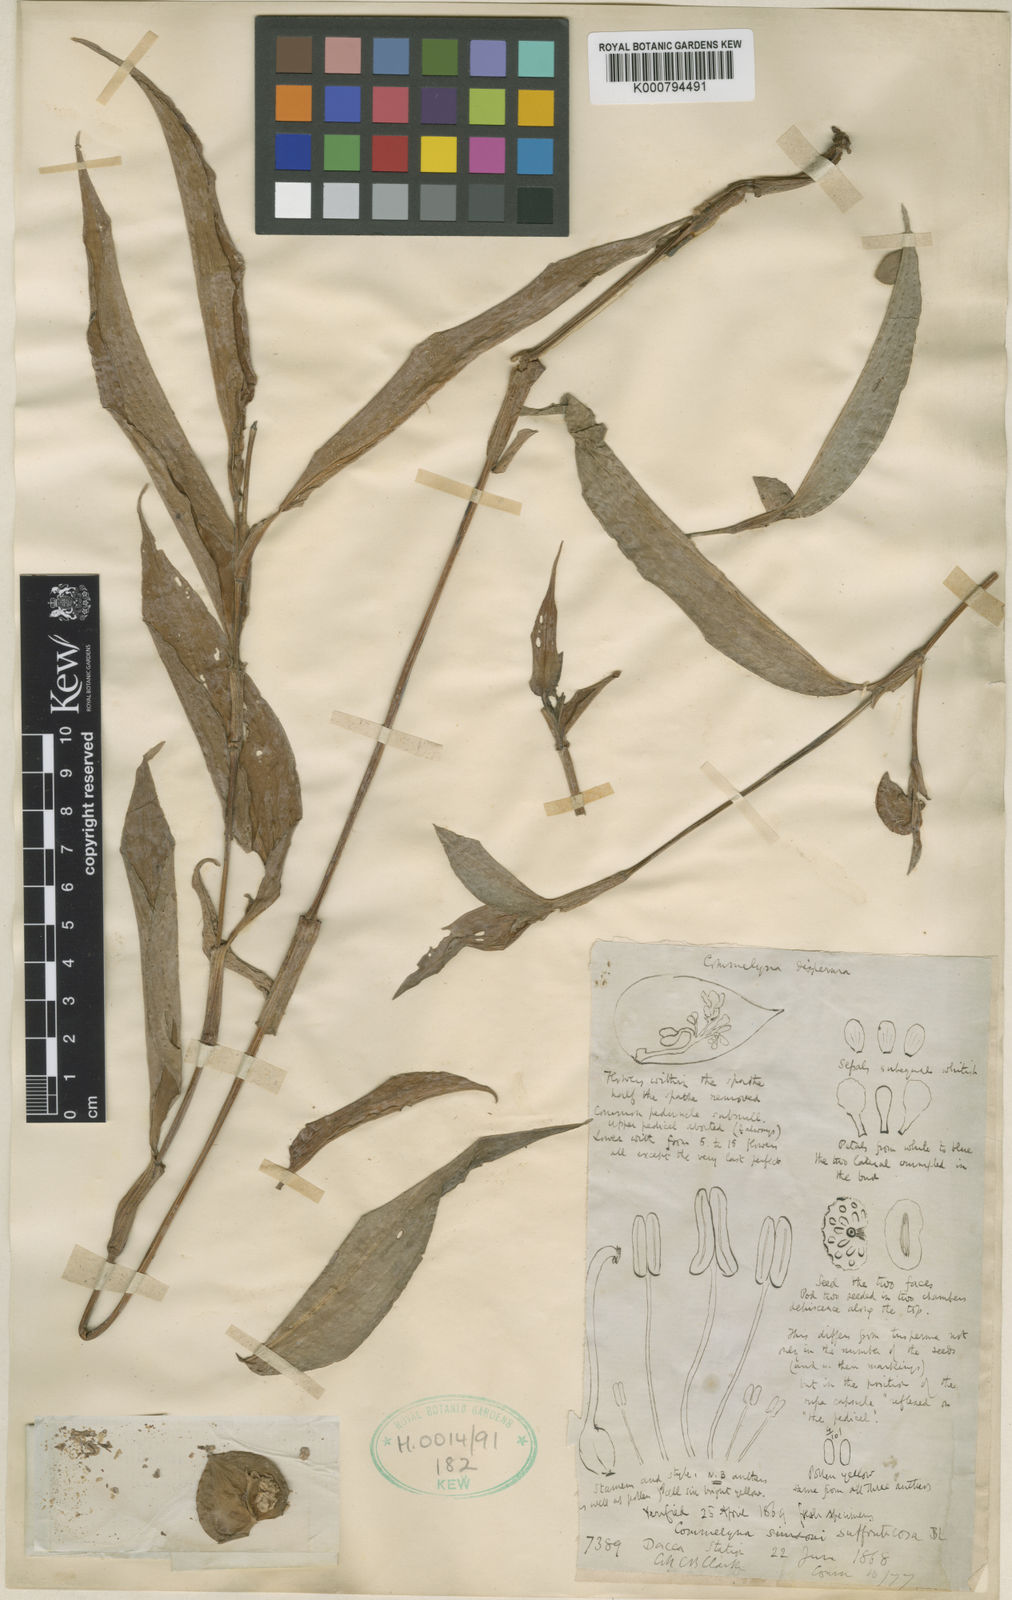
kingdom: Plantae
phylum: Tracheophyta
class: Liliopsida
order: Commelinales
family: Commelinaceae
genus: Commelina
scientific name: Commelina suffruticosa
